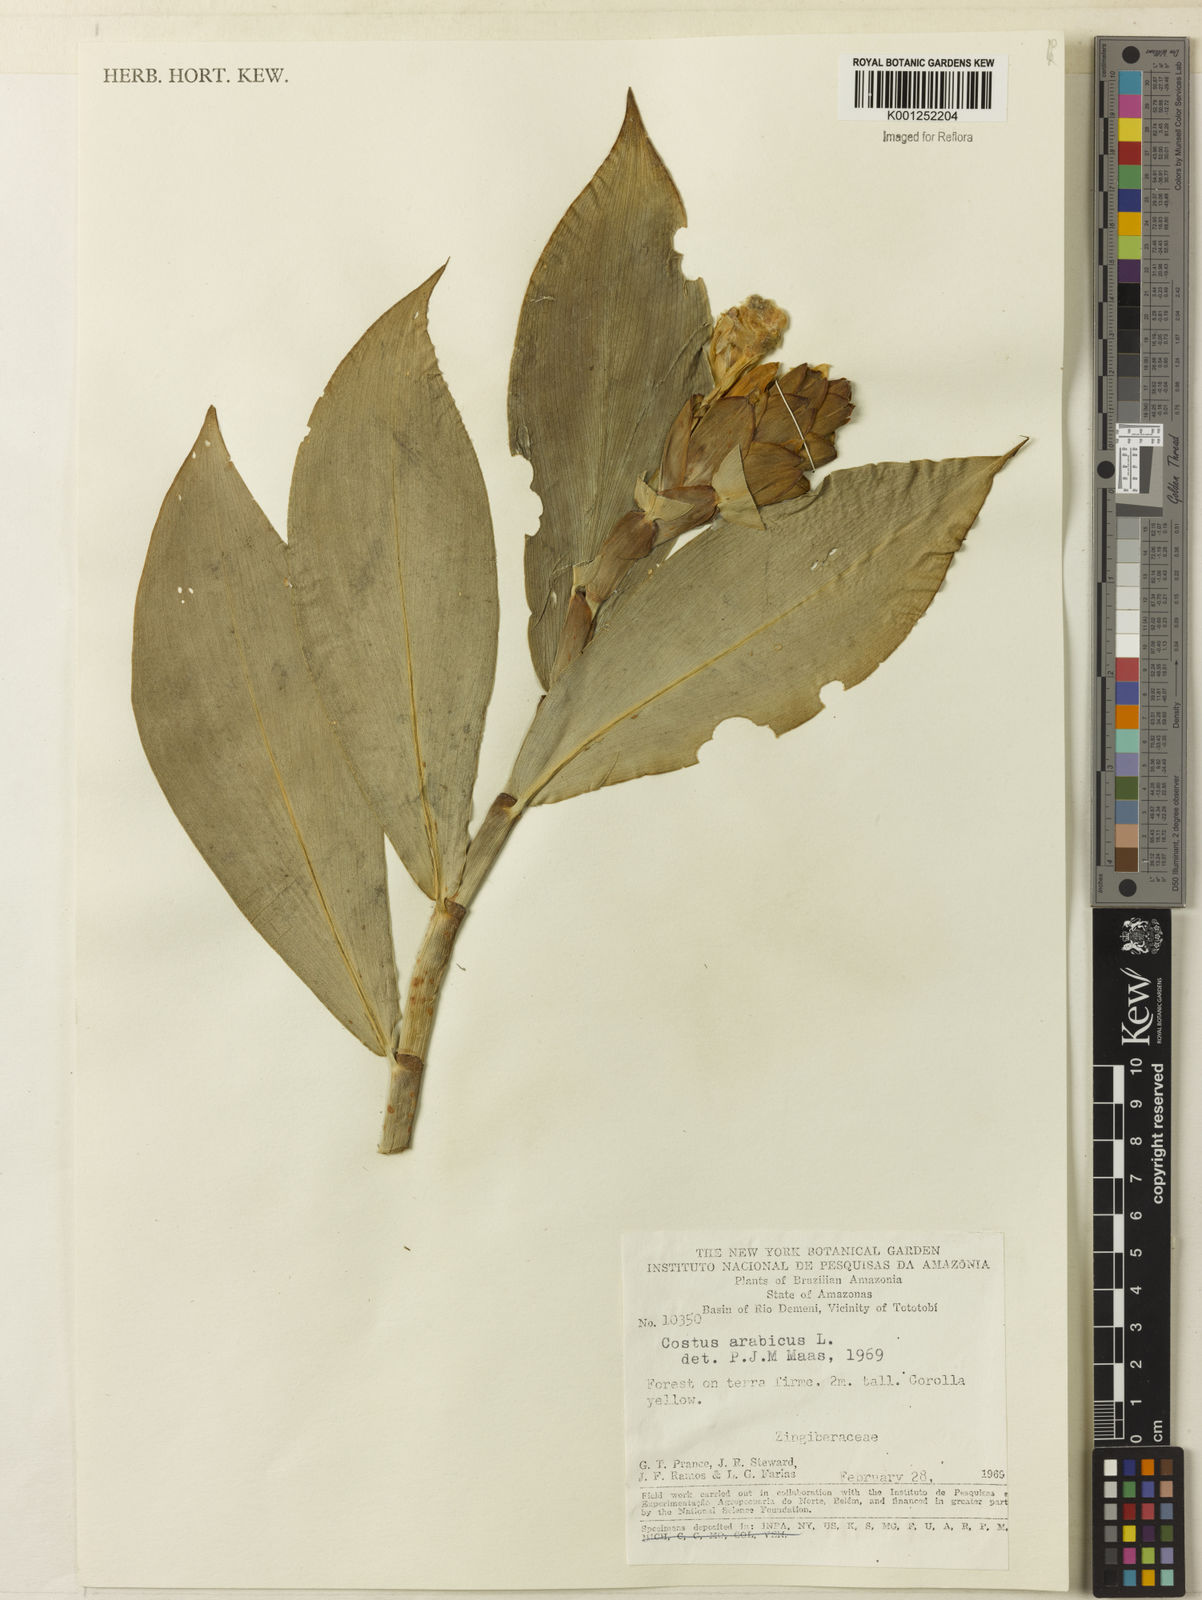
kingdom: Plantae
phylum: Tracheophyta
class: Liliopsida
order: Zingiberales
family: Costaceae
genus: Costus
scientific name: Costus arabicus
